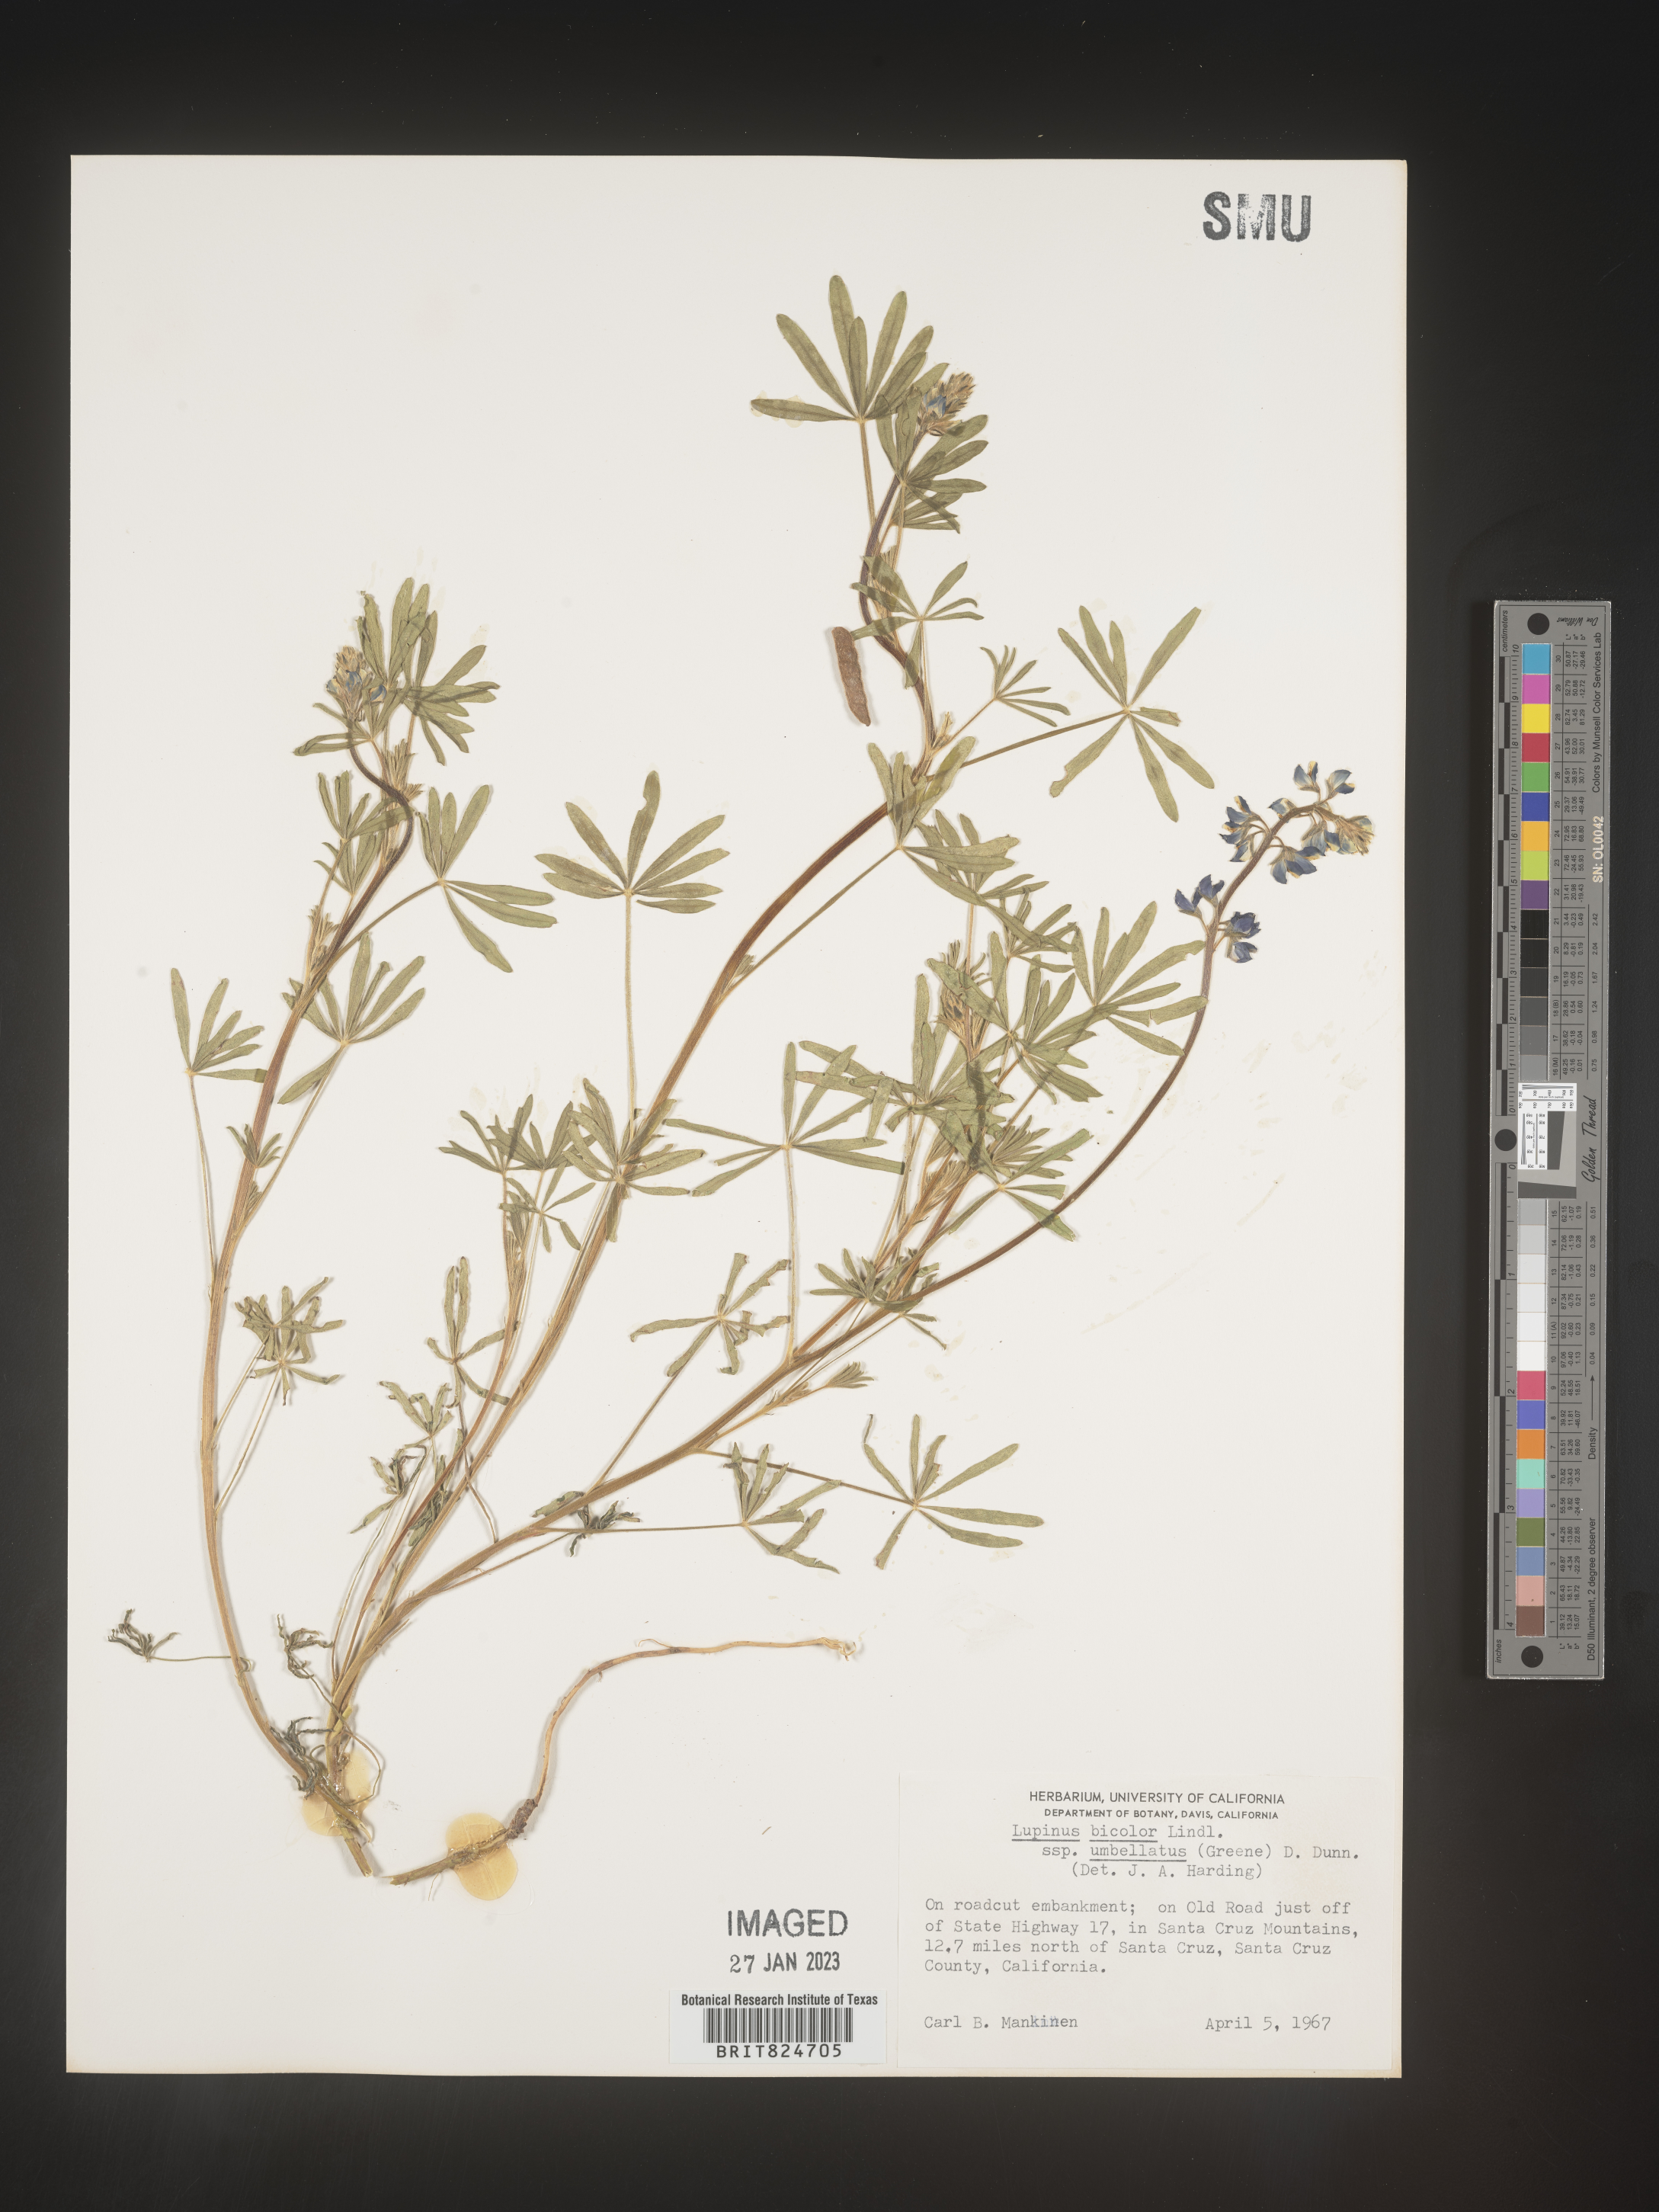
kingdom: Plantae
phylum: Tracheophyta
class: Magnoliopsida
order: Fabales
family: Fabaceae
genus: Lupinus
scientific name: Lupinus bicolor
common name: Miniature lupine
